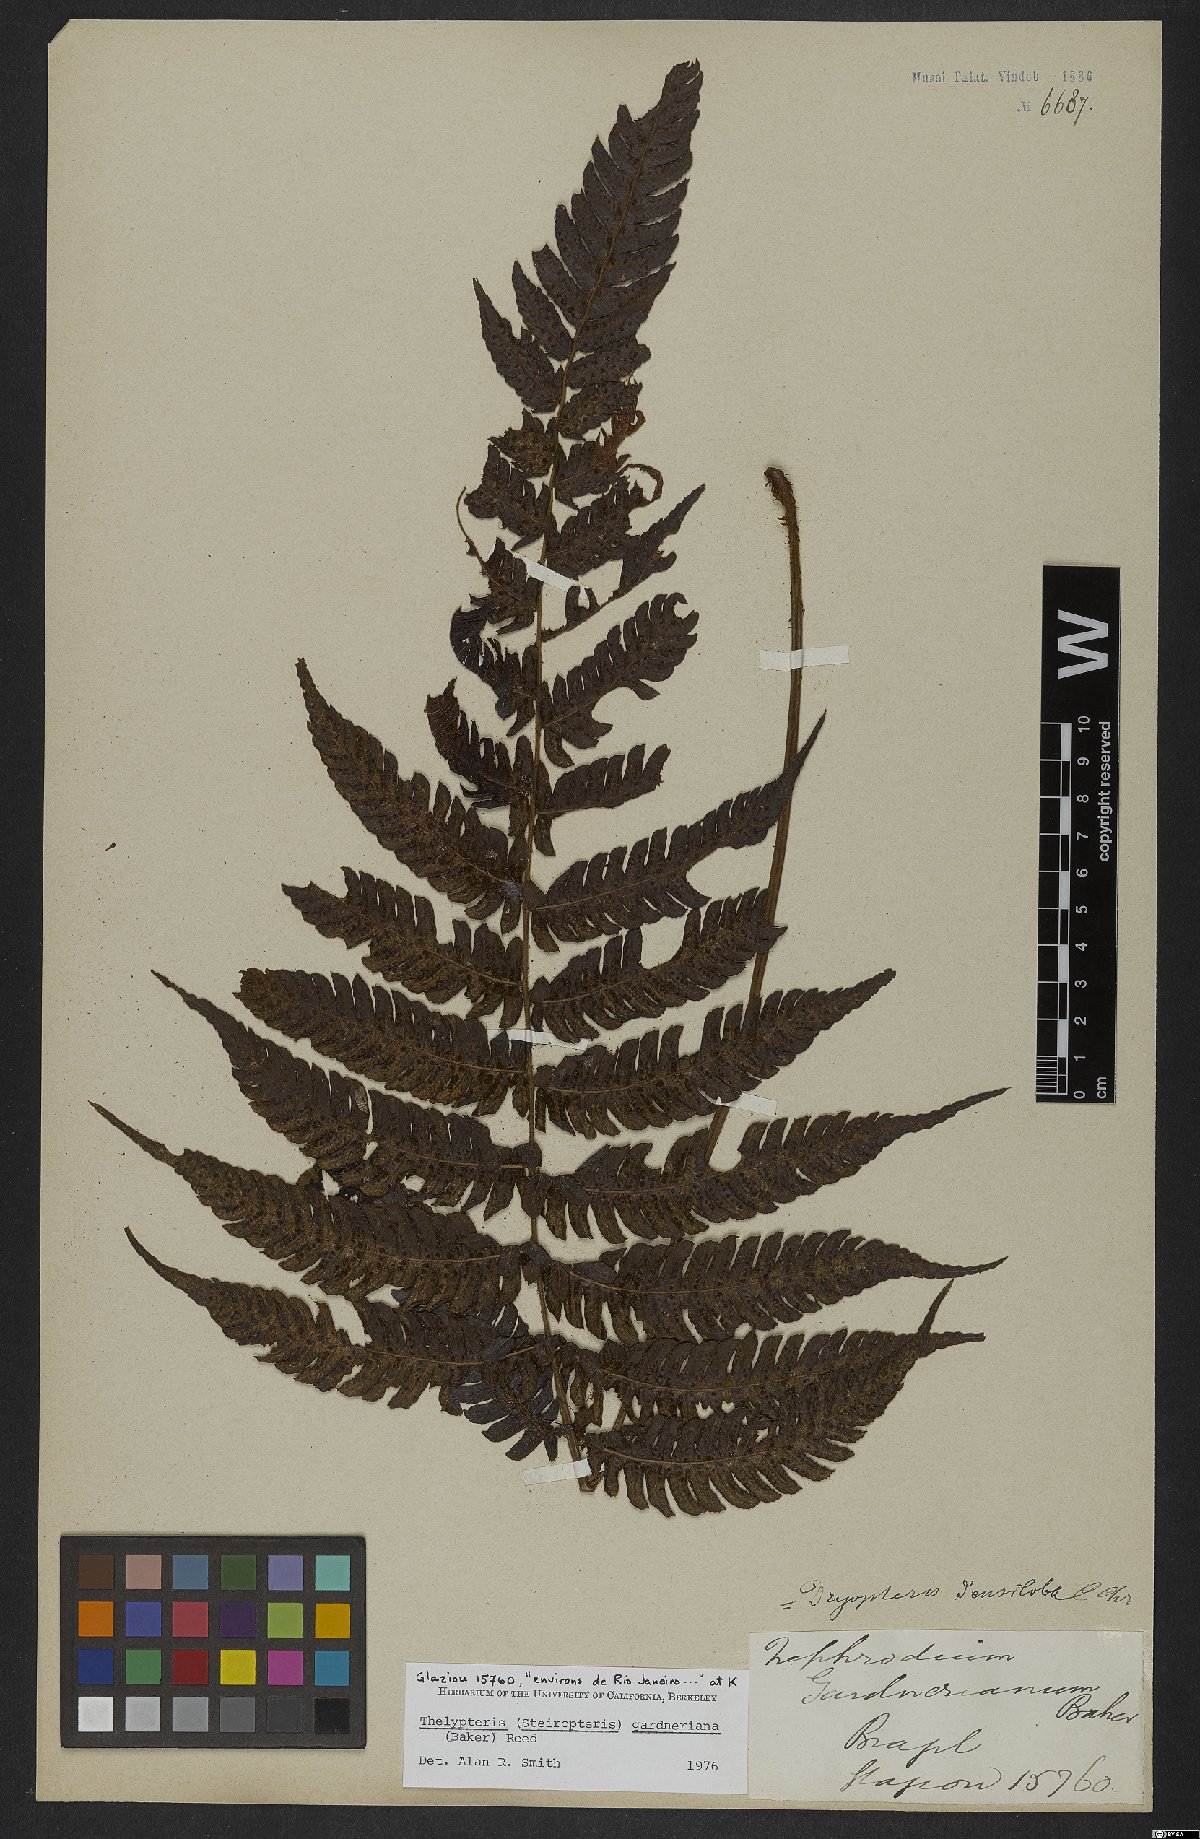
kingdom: Plantae
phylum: Tracheophyta
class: Polypodiopsida
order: Polypodiales
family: Thelypteridaceae
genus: Steiropteris
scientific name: Steiropteris gardneriana
